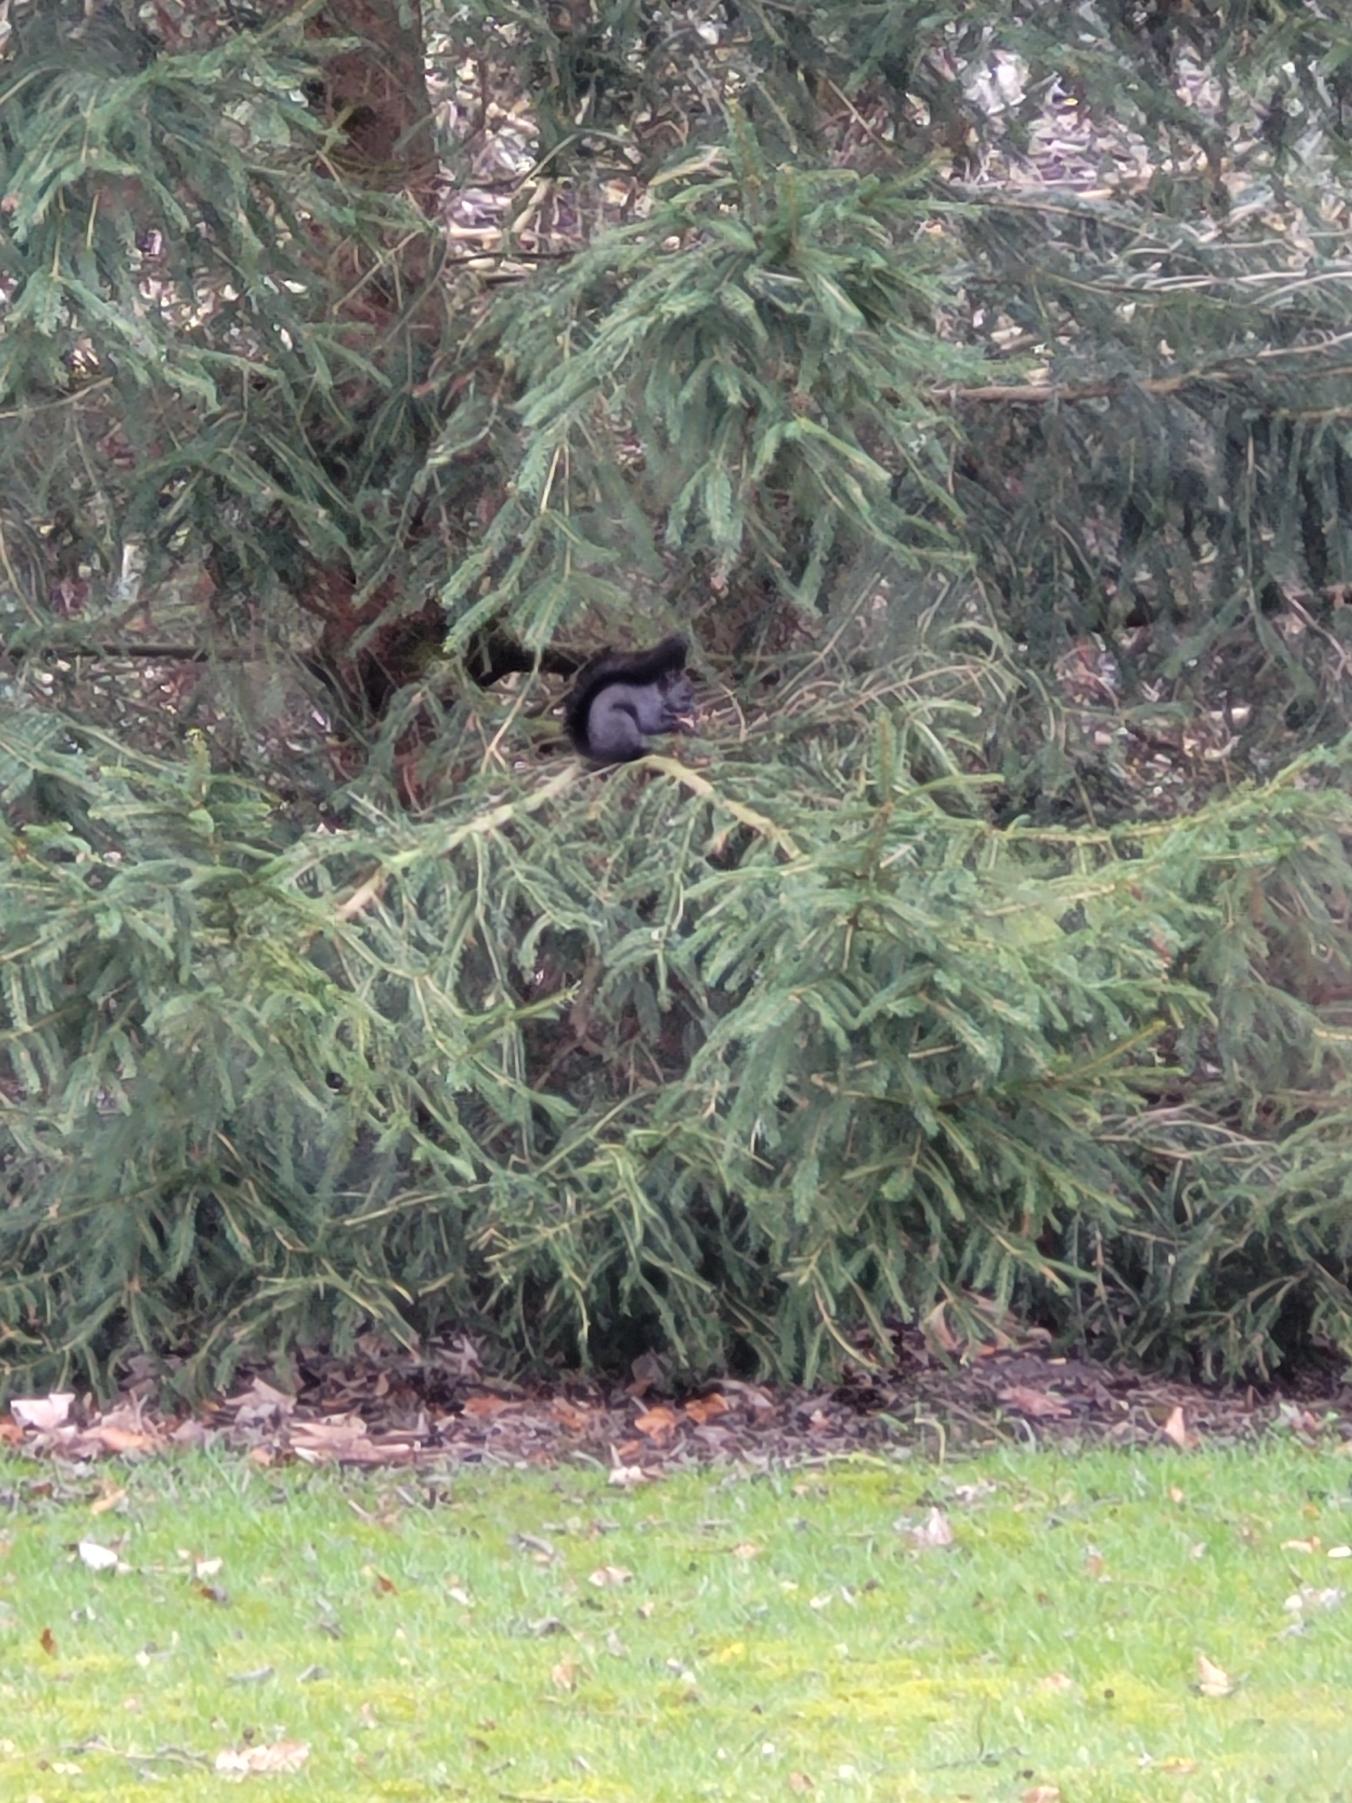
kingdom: Animalia
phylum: Chordata
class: Mammalia
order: Rodentia
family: Sciuridae
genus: Sciurus
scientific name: Sciurus vulgaris
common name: Egern
